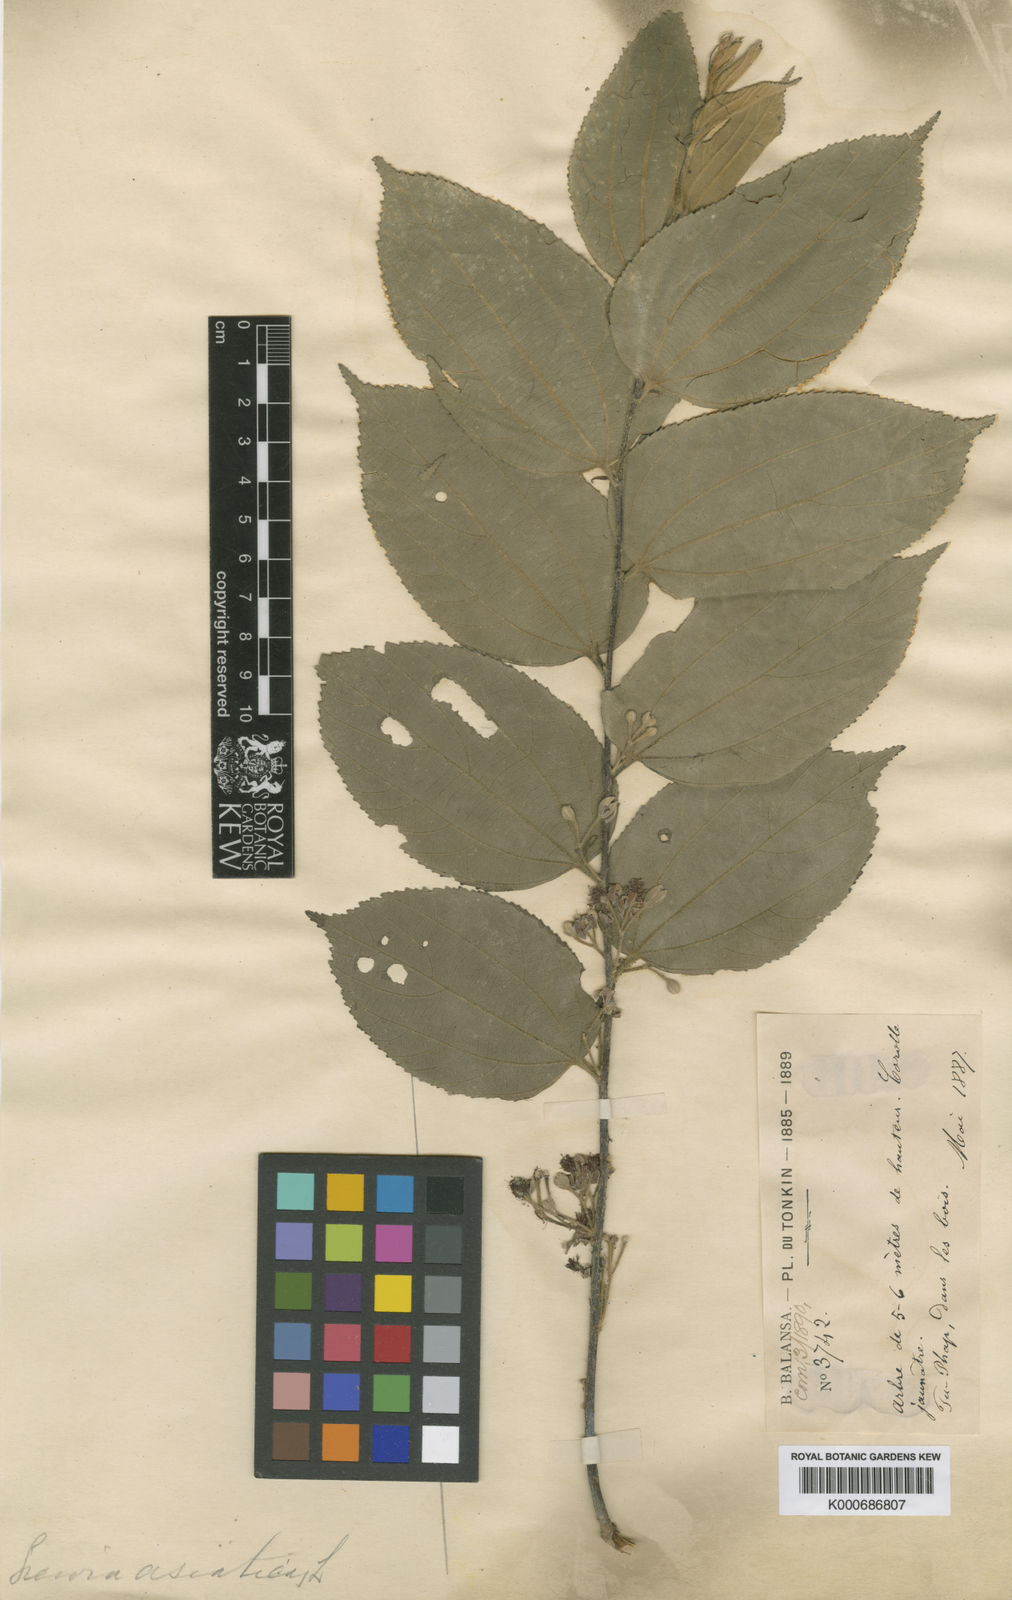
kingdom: Plantae
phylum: Tracheophyta
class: Magnoliopsida
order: Malvales
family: Malvaceae
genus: Grewia
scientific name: Grewia eriocarpa
